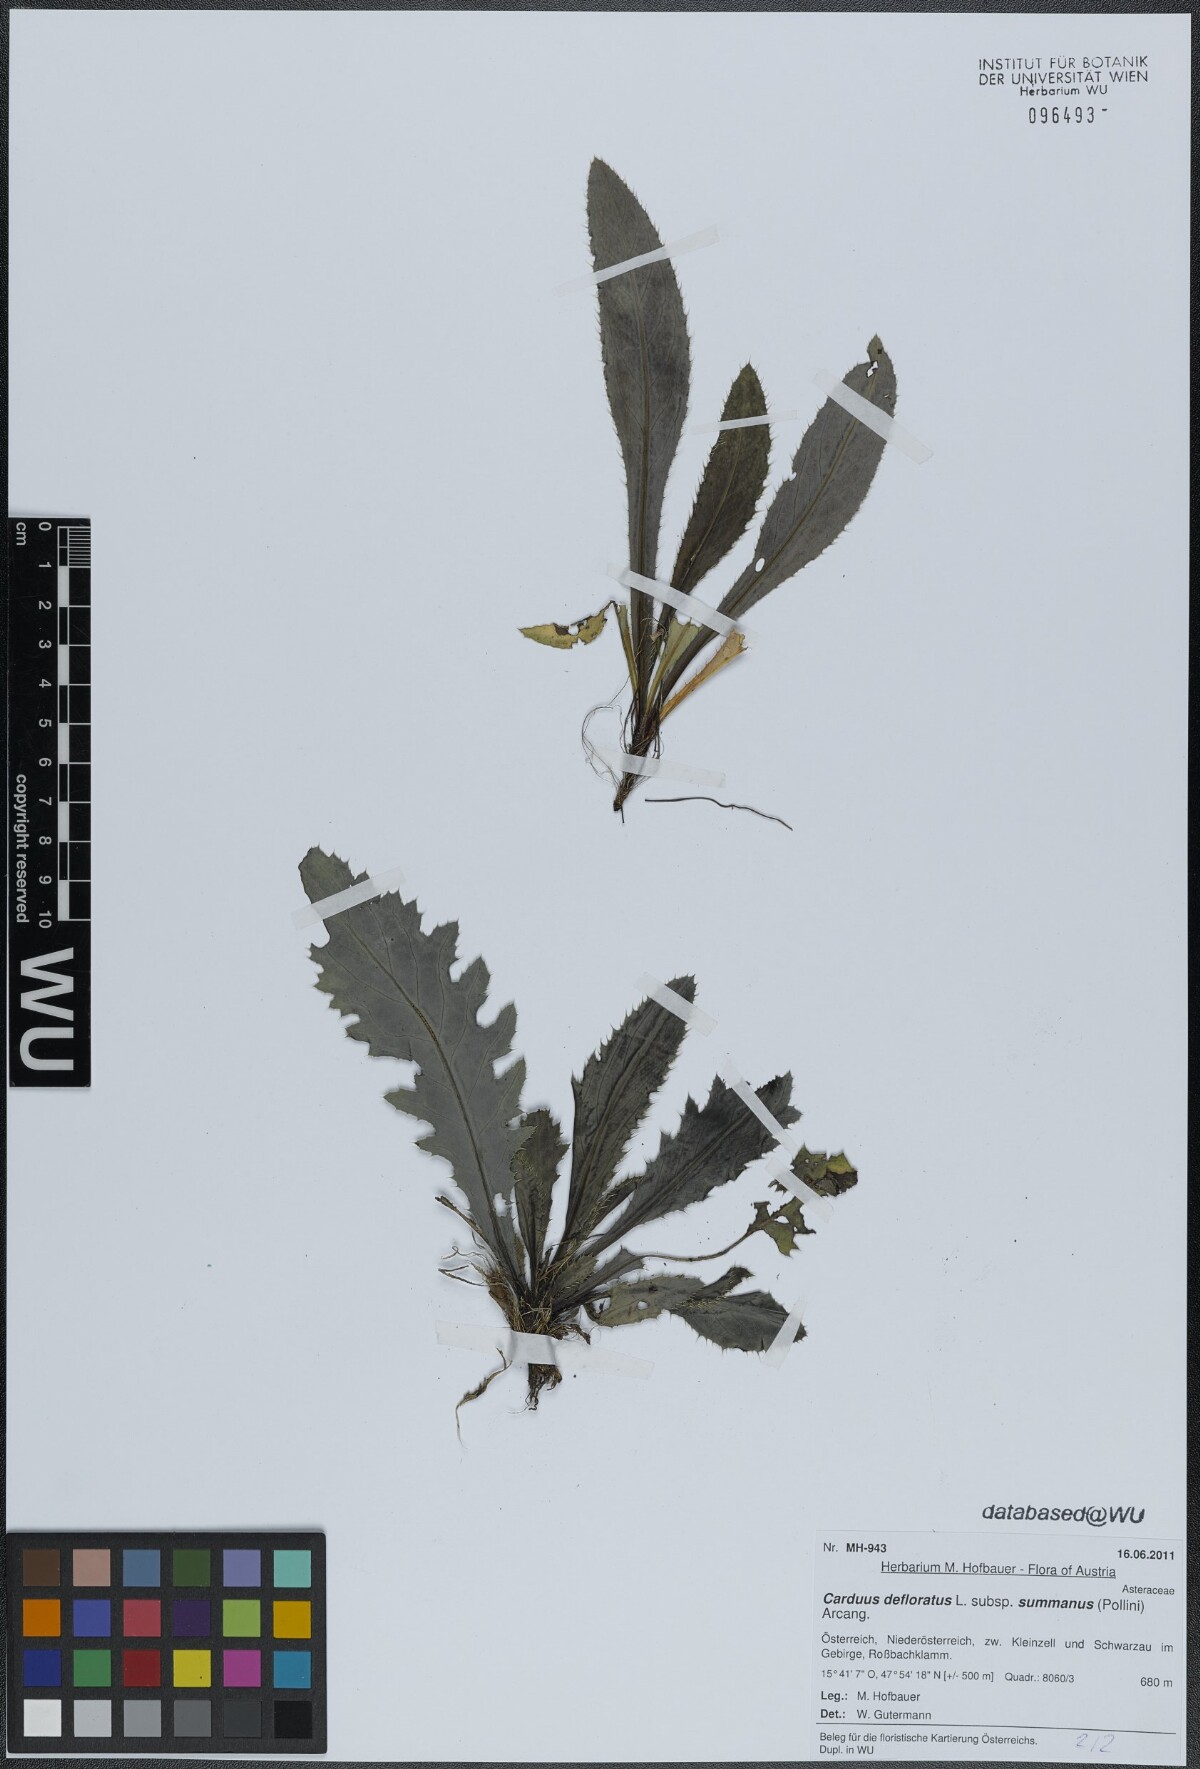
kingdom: Plantae
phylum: Tracheophyta
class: Magnoliopsida
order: Asterales
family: Asteraceae
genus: Carduus
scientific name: Carduus defloratus
